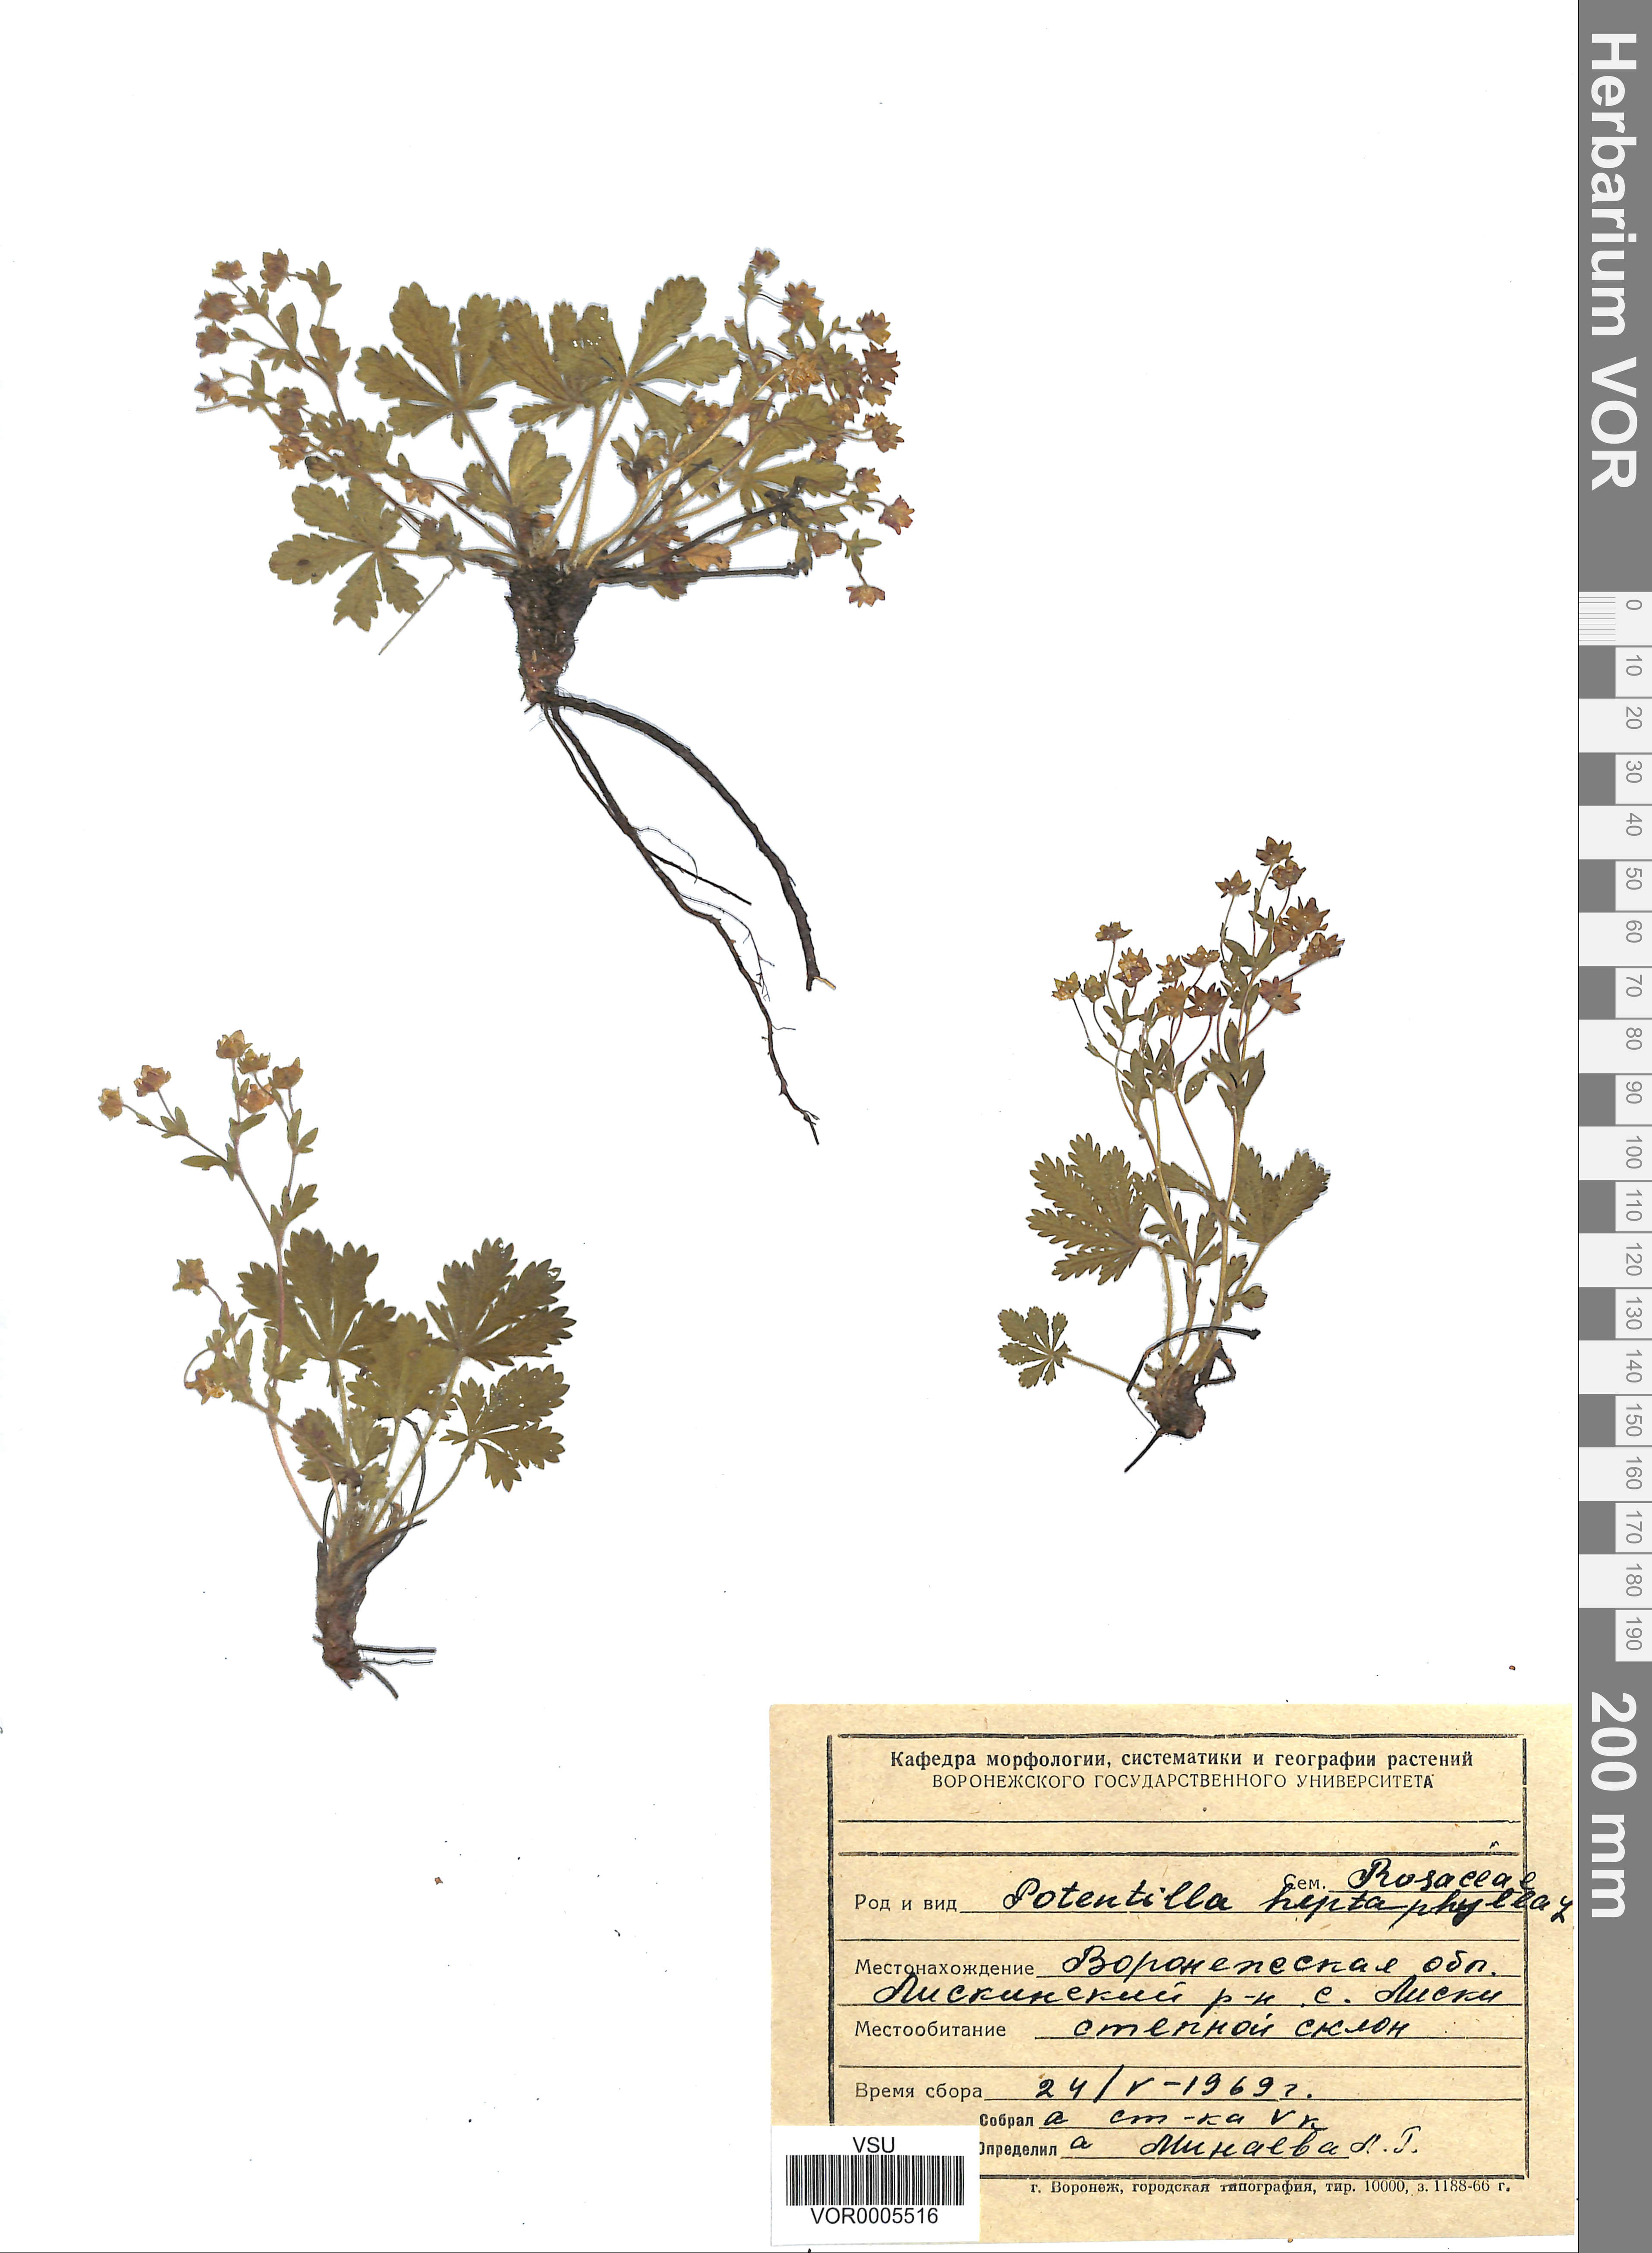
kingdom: Plantae
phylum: Tracheophyta
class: Magnoliopsida
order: Rosales
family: Rosaceae
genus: Potentilla
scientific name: Potentilla heptaphylla
